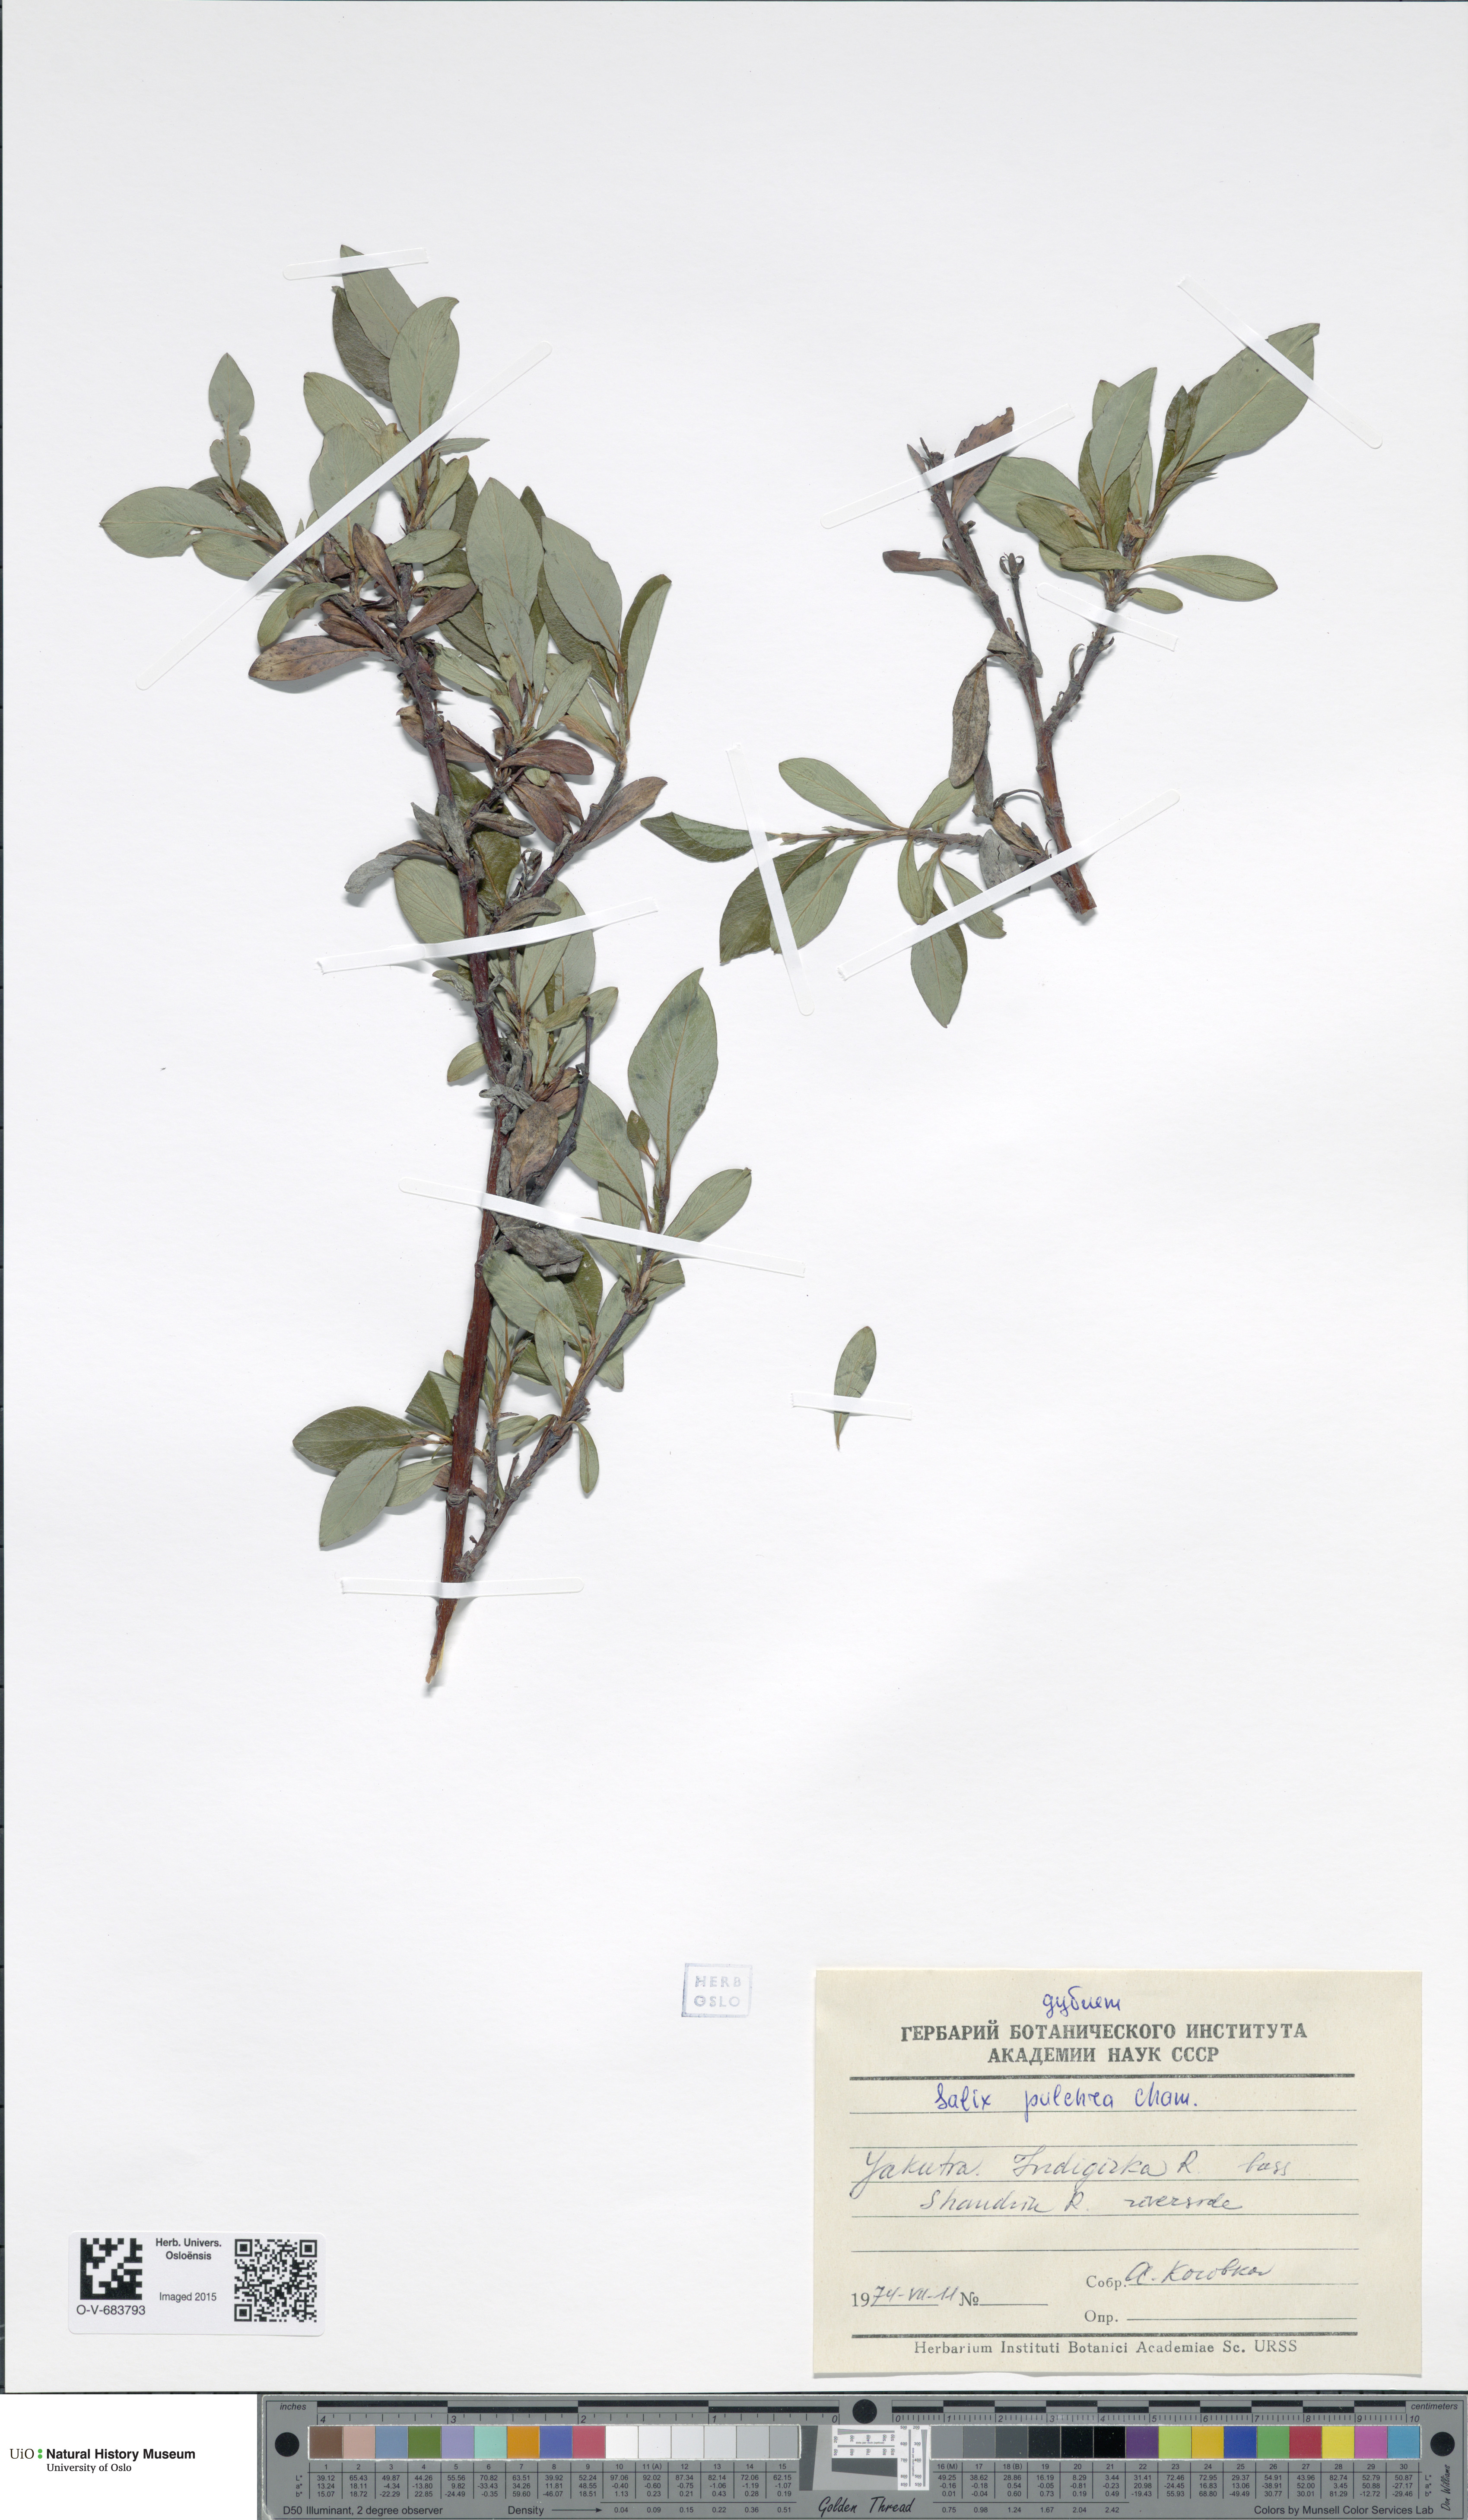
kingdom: Plantae
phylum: Tracheophyta
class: Magnoliopsida
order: Malpighiales
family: Salicaceae
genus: Salix
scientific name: Salix pulchra
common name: Diamond-leaved willow
